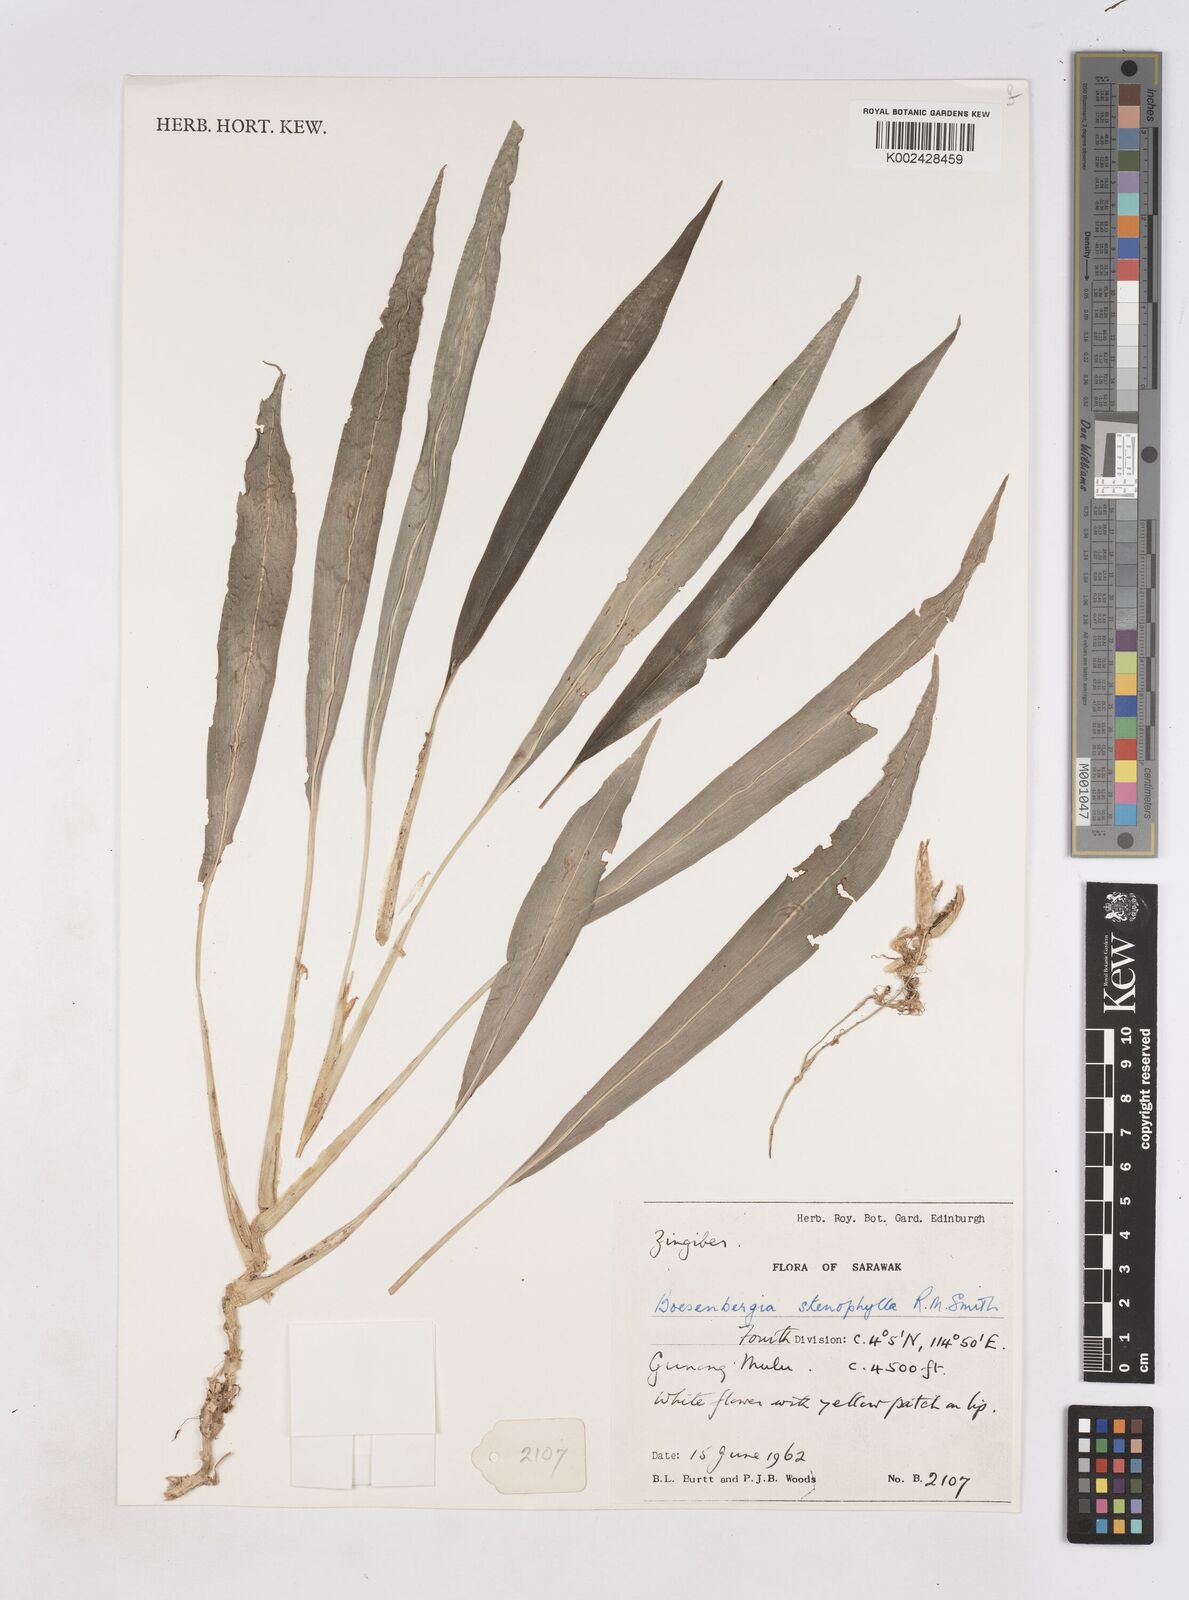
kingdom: Plantae
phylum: Tracheophyta
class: Liliopsida
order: Zingiberales
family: Zingiberaceae
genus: Boesenbergia
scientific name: Boesenbergia stenophylla
